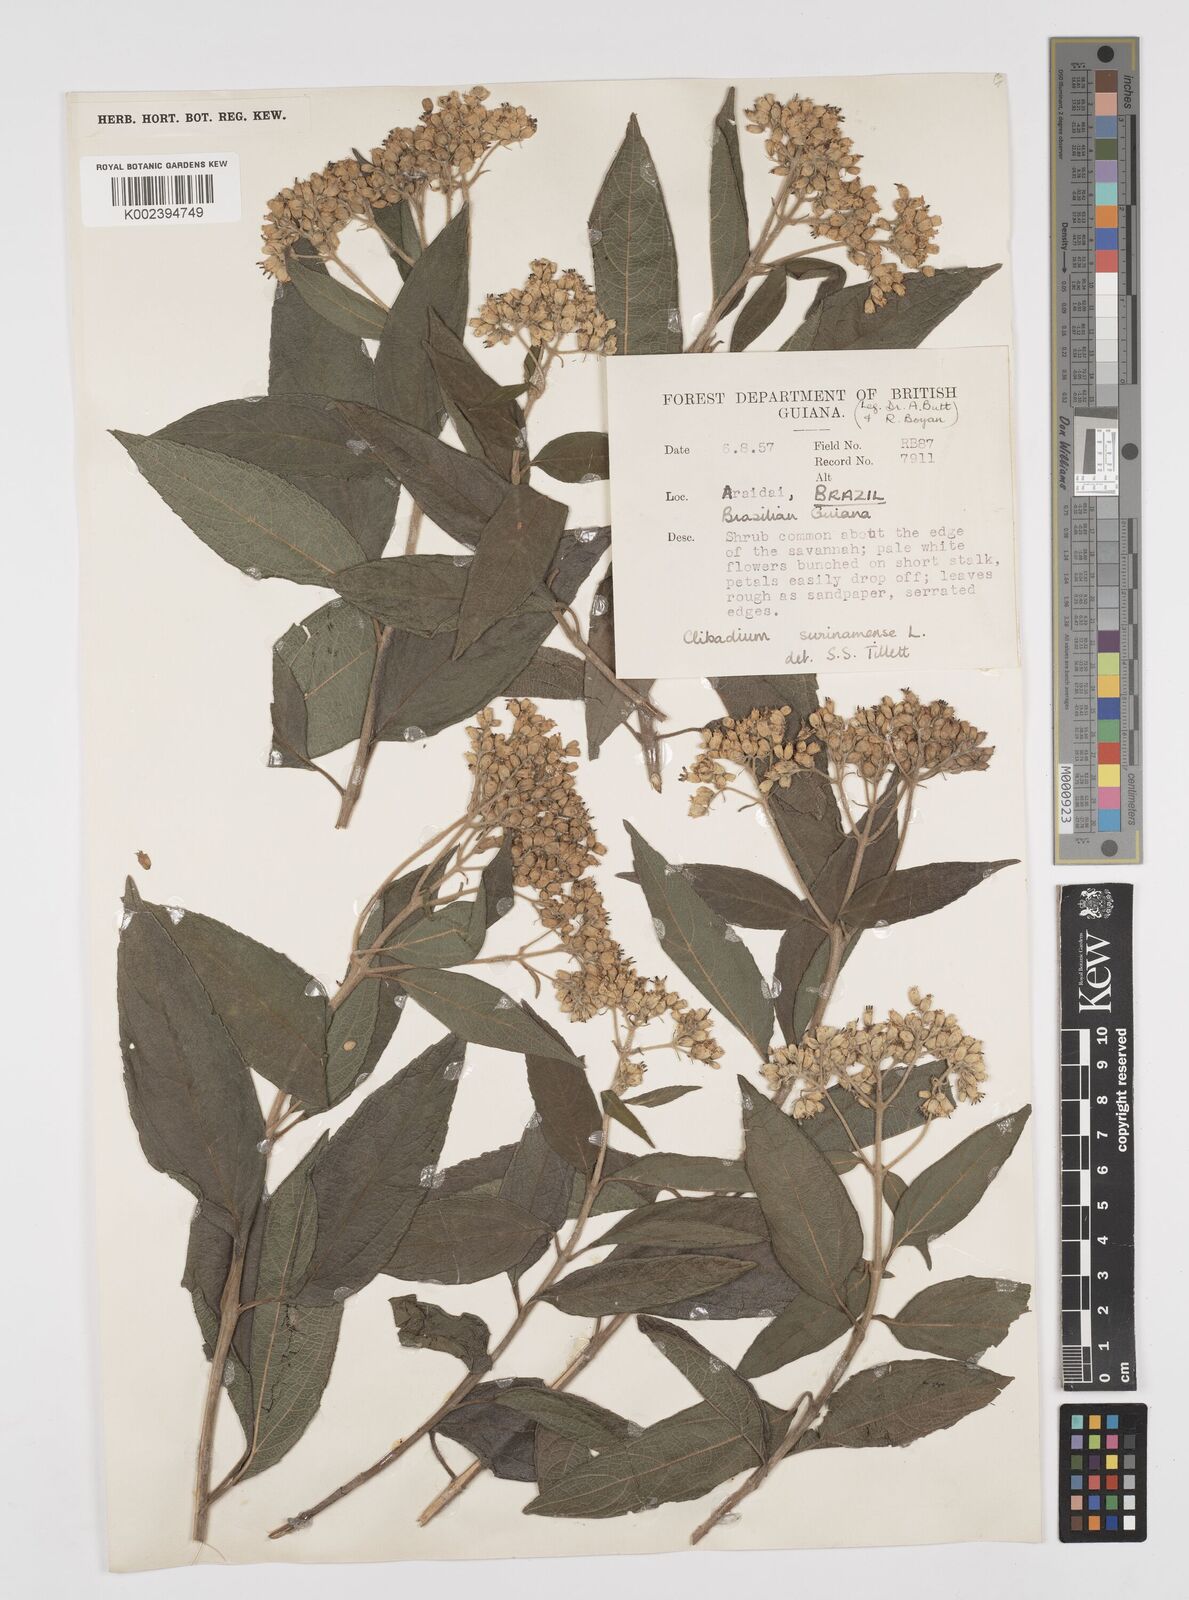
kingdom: Plantae
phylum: Tracheophyta
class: Magnoliopsida
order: Asterales
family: Asteraceae
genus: Clibadium
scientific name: Clibadium surinamense
